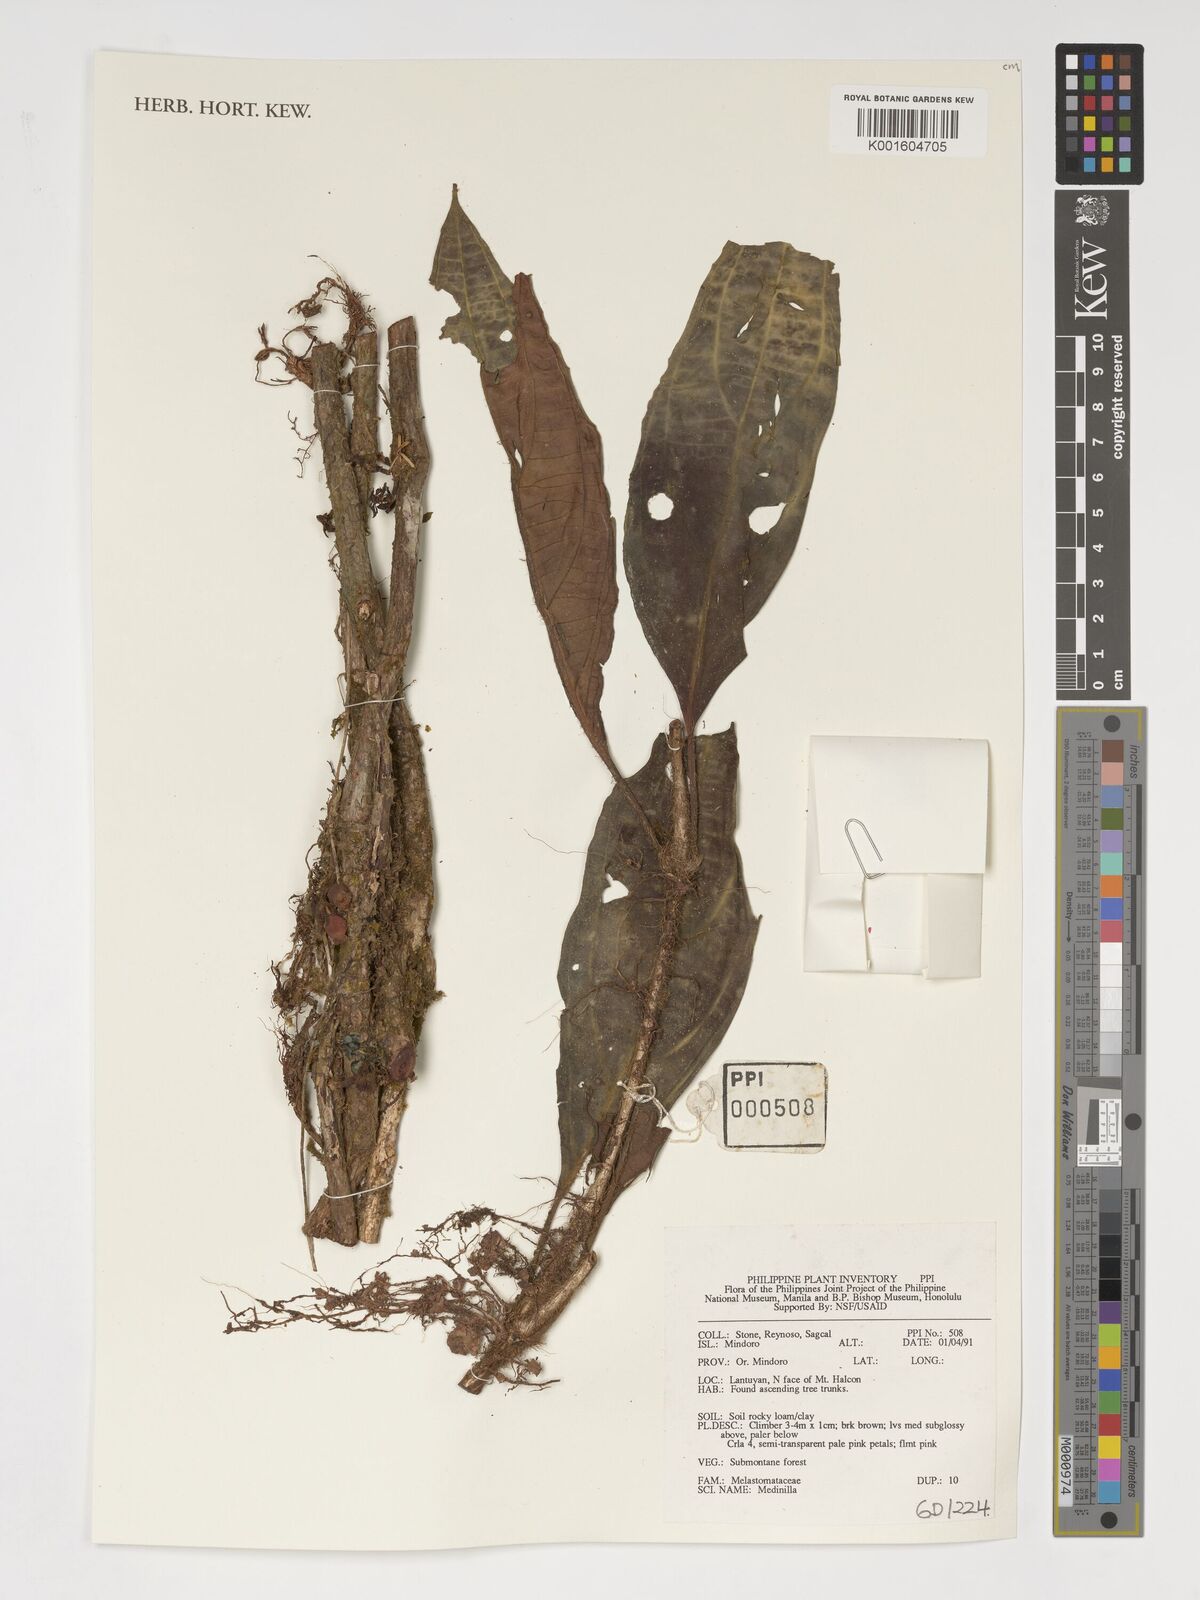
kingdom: Plantae
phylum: Tracheophyta
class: Magnoliopsida
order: Myrtales
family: Melastomataceae
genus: Medinilla
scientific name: Medinilla
